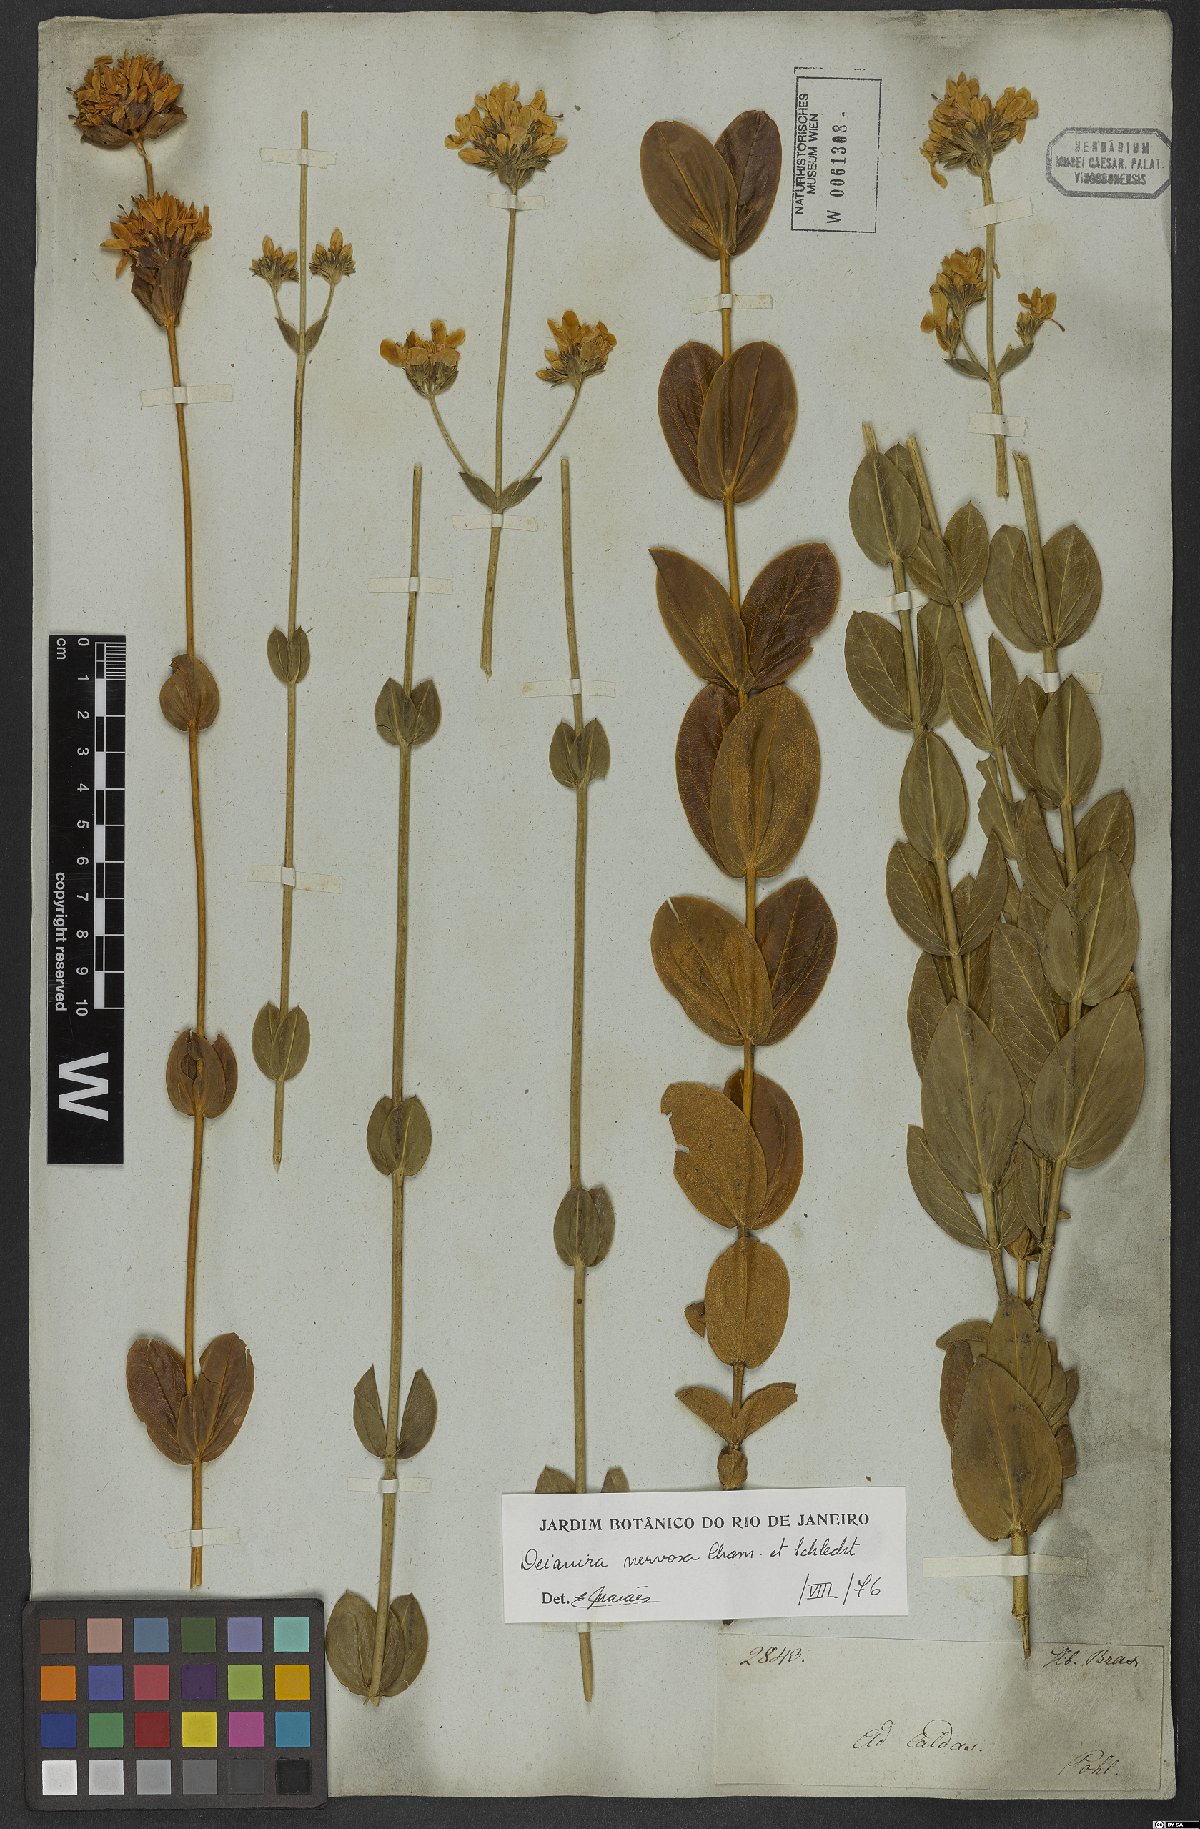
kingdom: Plantae
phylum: Tracheophyta
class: Magnoliopsida
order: Gentianales
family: Gentianaceae
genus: Deianira
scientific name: Deianira nervosa
